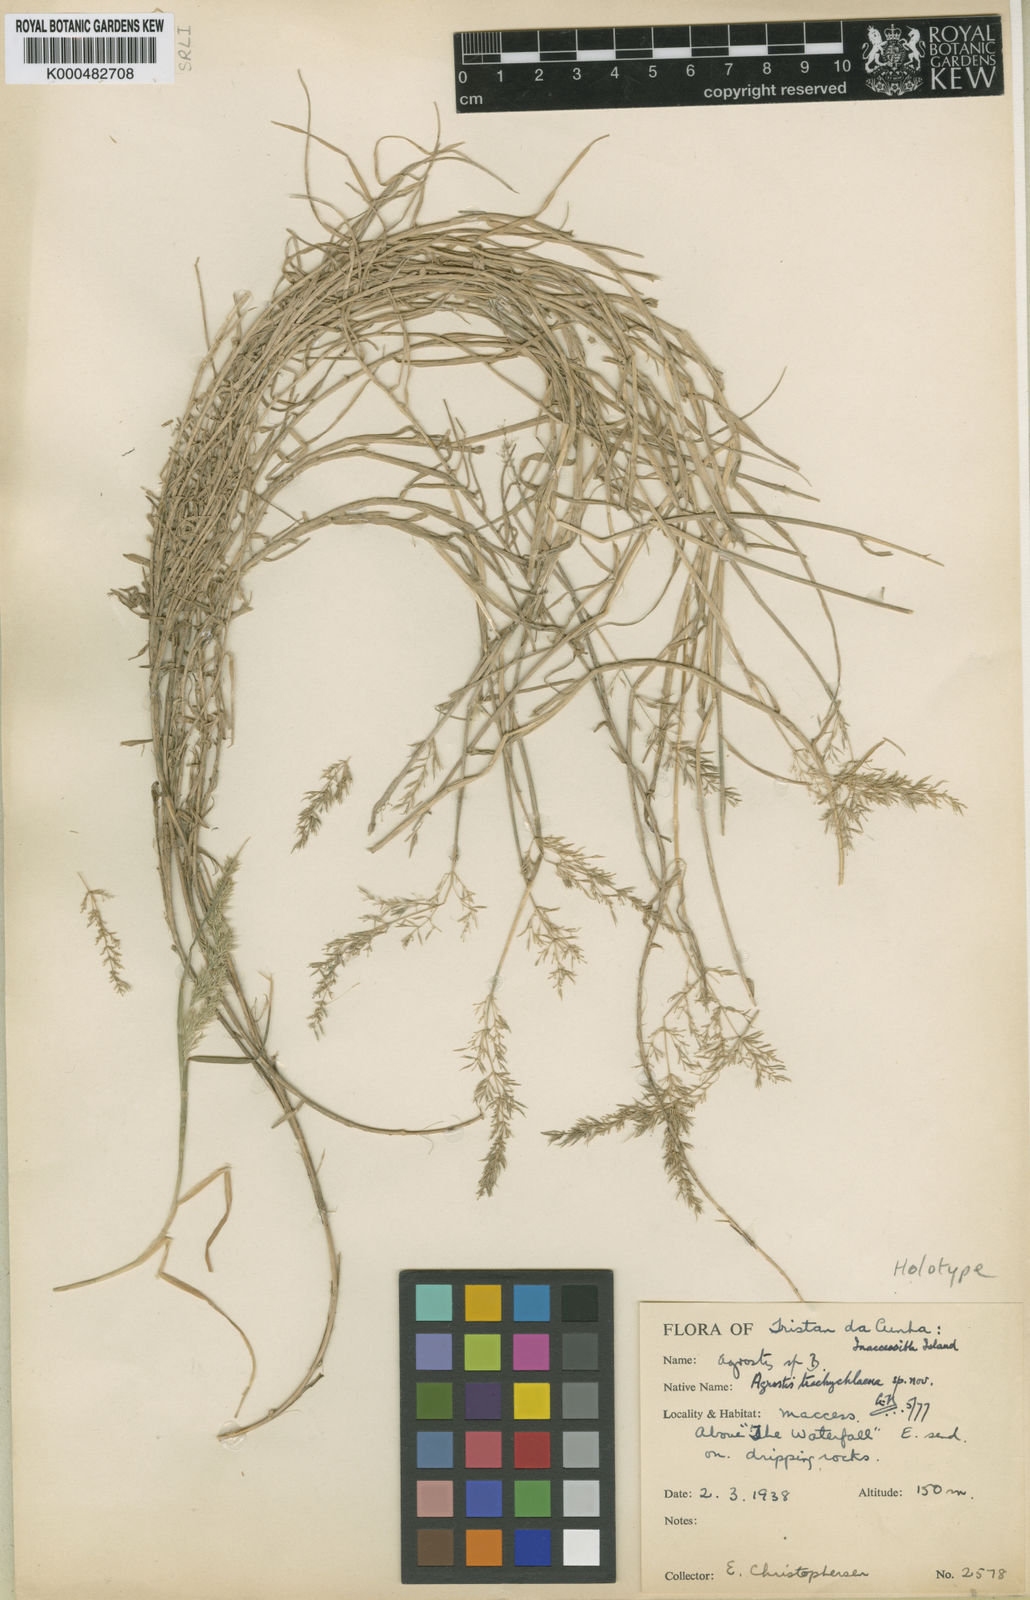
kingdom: Plantae
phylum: Tracheophyta
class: Liliopsida
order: Poales
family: Poaceae
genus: Agrostis
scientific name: Agrostis trachychlaena
